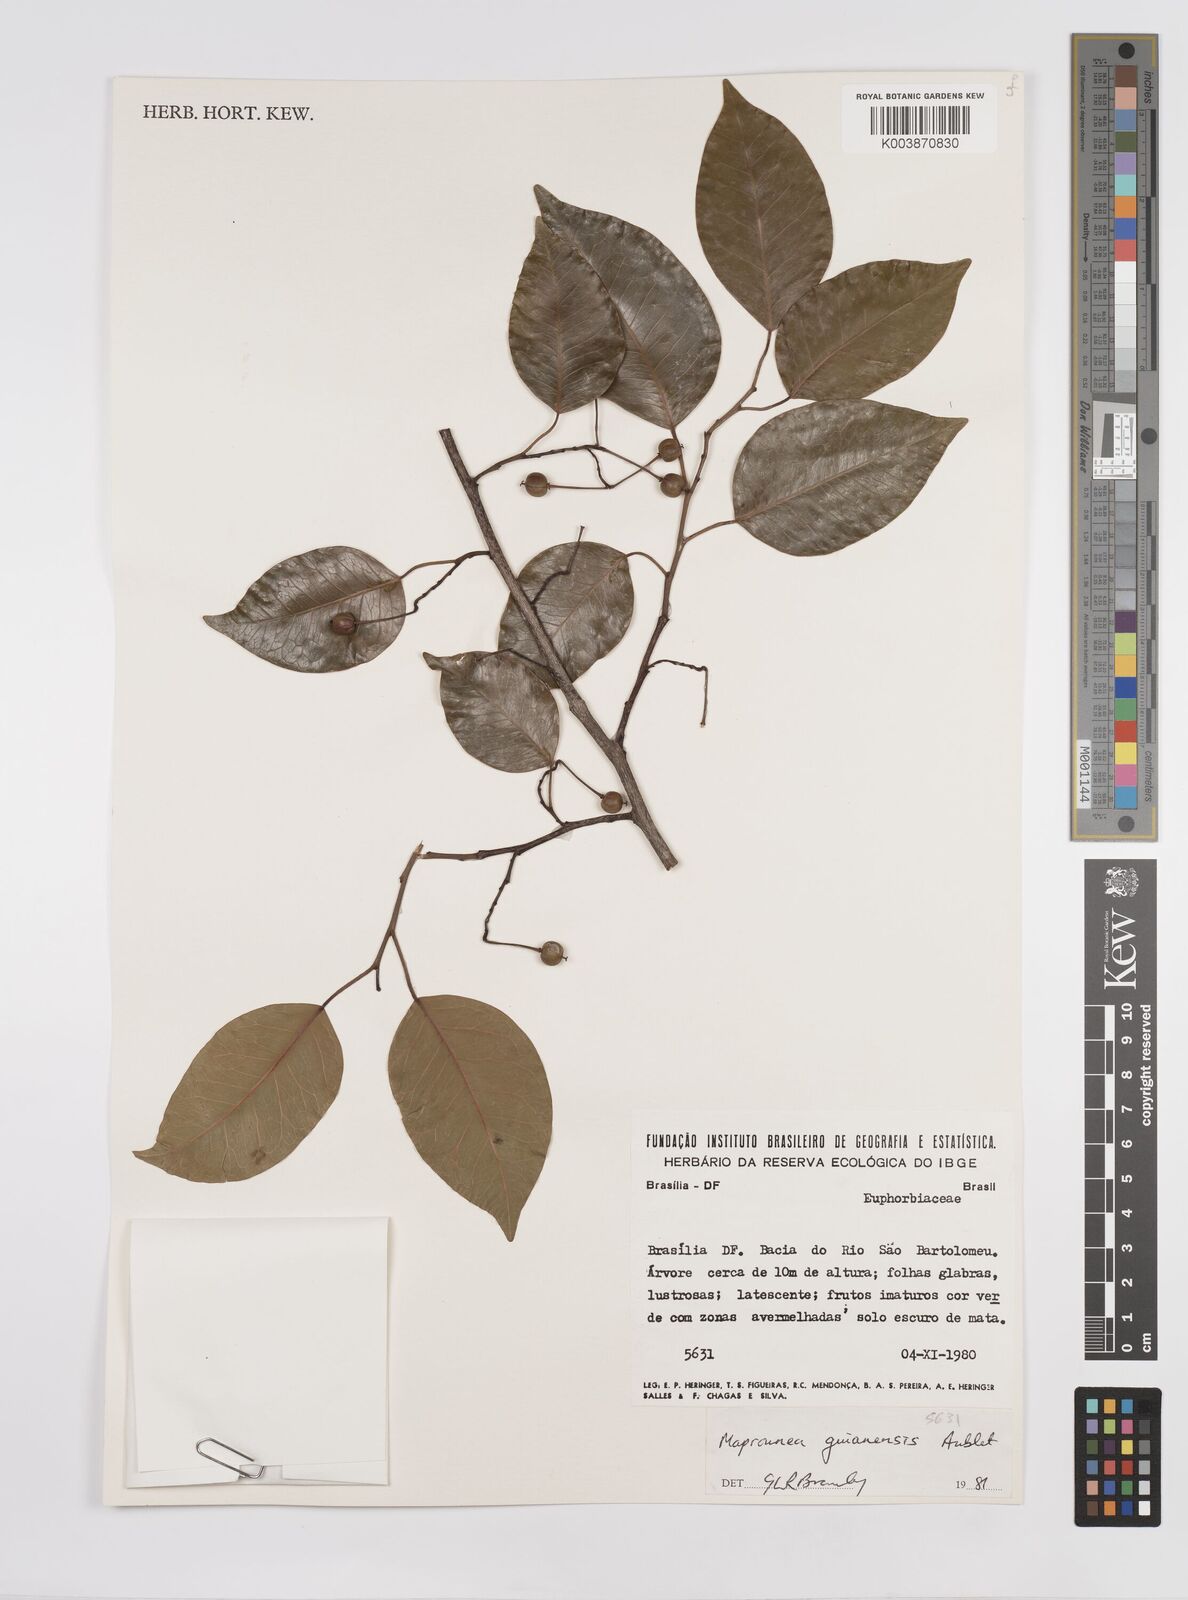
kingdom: Plantae
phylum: Tracheophyta
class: Magnoliopsida
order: Malpighiales
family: Euphorbiaceae
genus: Maprounea
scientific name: Maprounea guianensis
